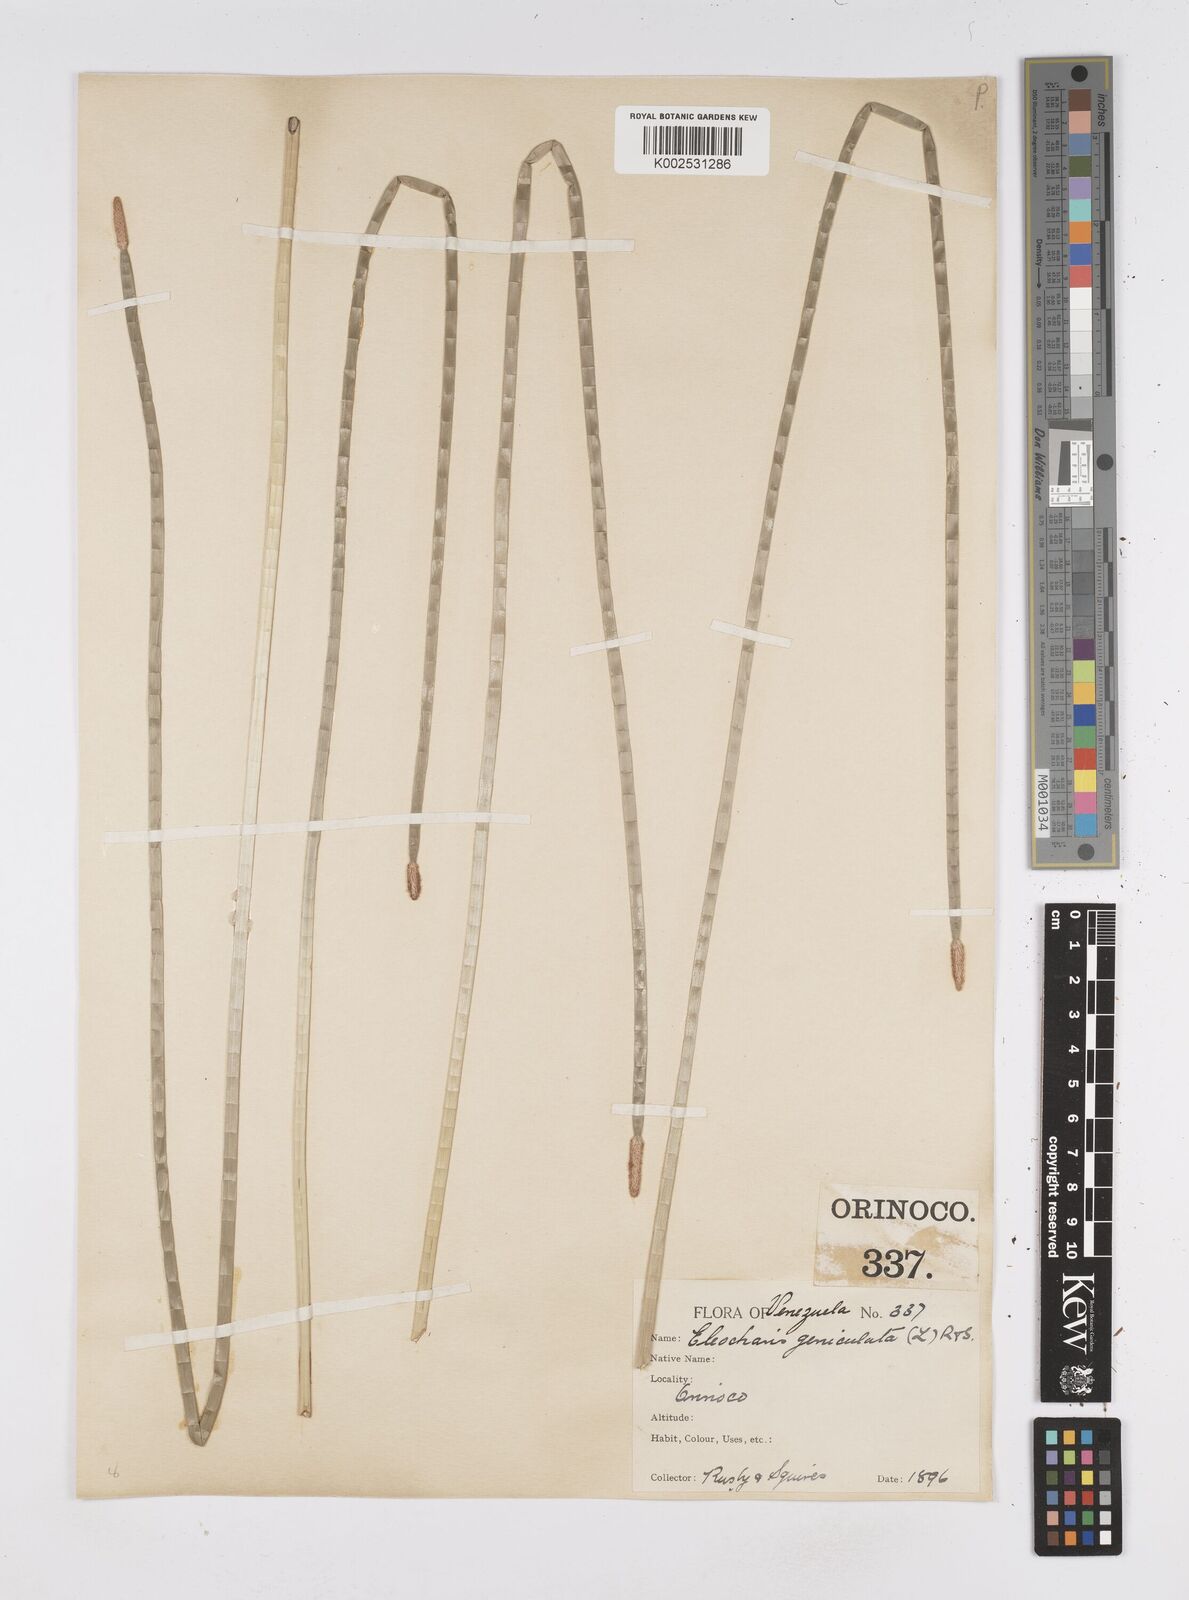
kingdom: Plantae
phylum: Tracheophyta
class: Liliopsida
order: Poales
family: Cyperaceae
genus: Eleocharis
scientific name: Eleocharis elegans
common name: Elegant spike-rush
